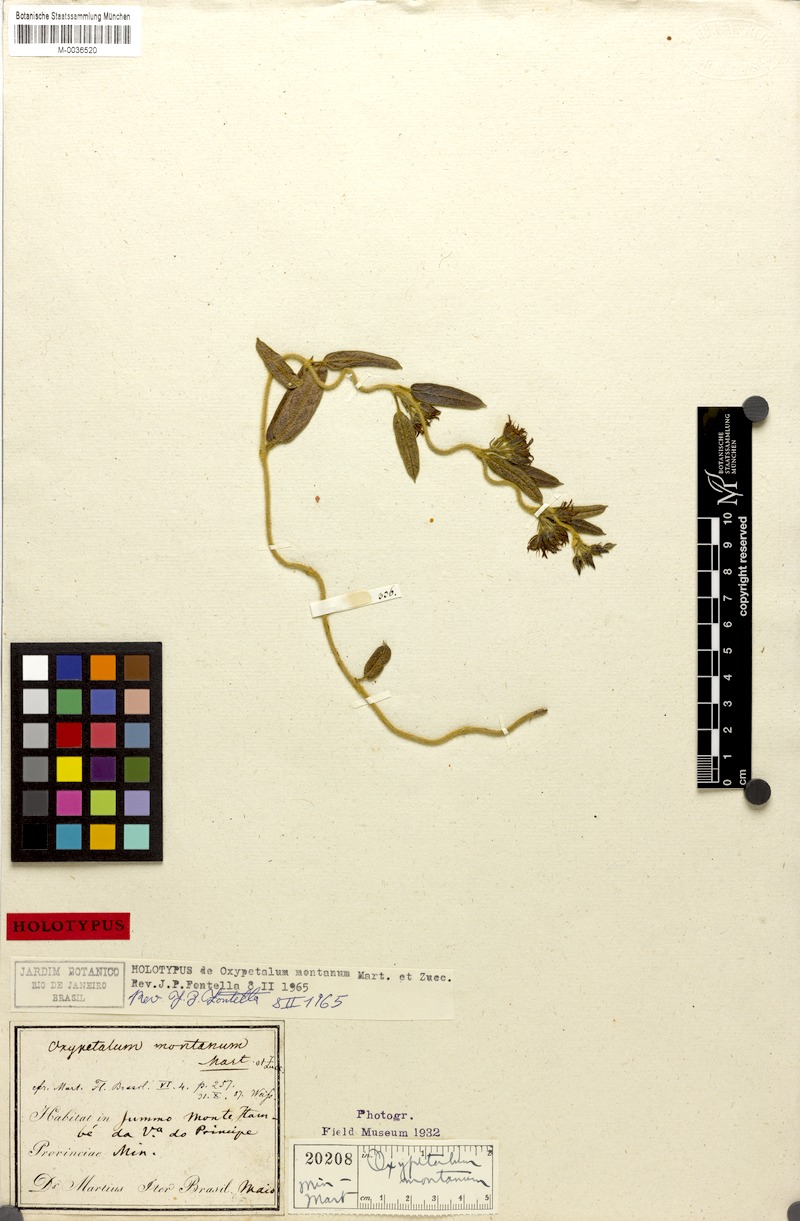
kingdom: Plantae
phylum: Tracheophyta
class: Magnoliopsida
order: Gentianales
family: Apocynaceae
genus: Oxypetalum
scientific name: Oxypetalum montanum
